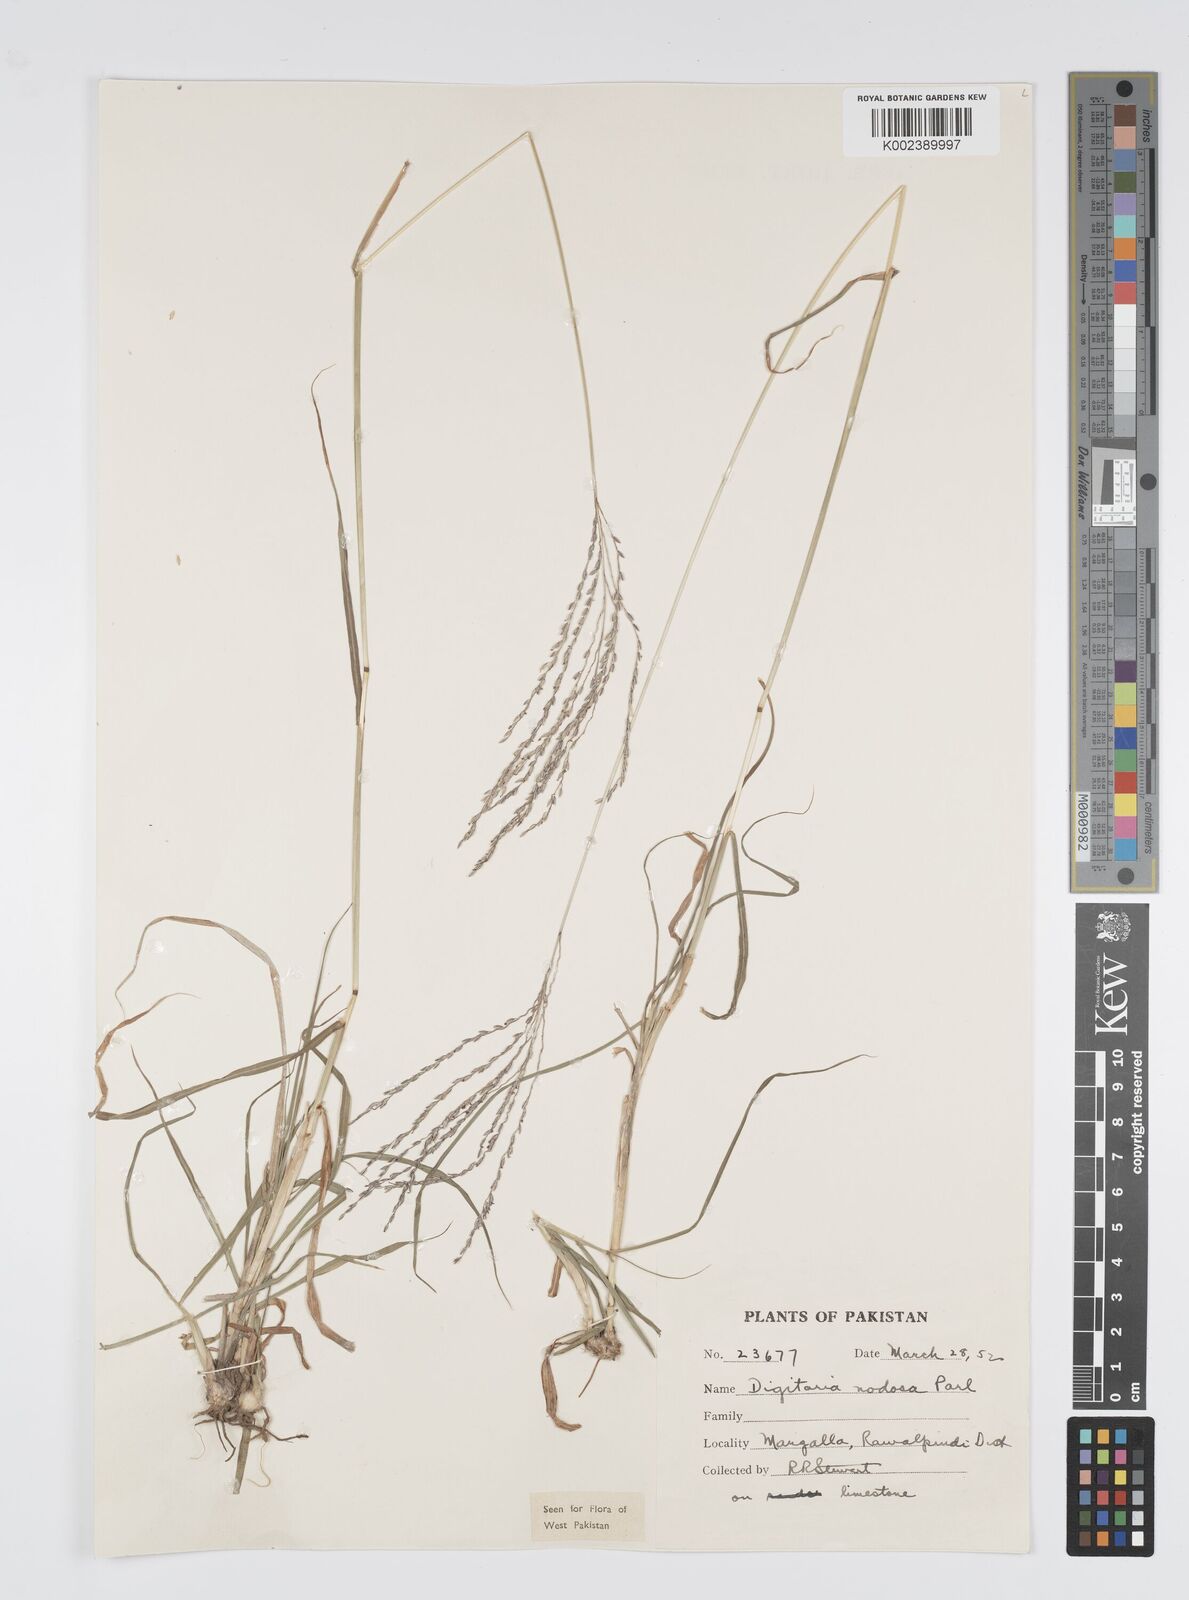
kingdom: Plantae
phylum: Tracheophyta
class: Liliopsida
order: Poales
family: Poaceae
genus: Digitaria
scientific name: Digitaria nodosa
